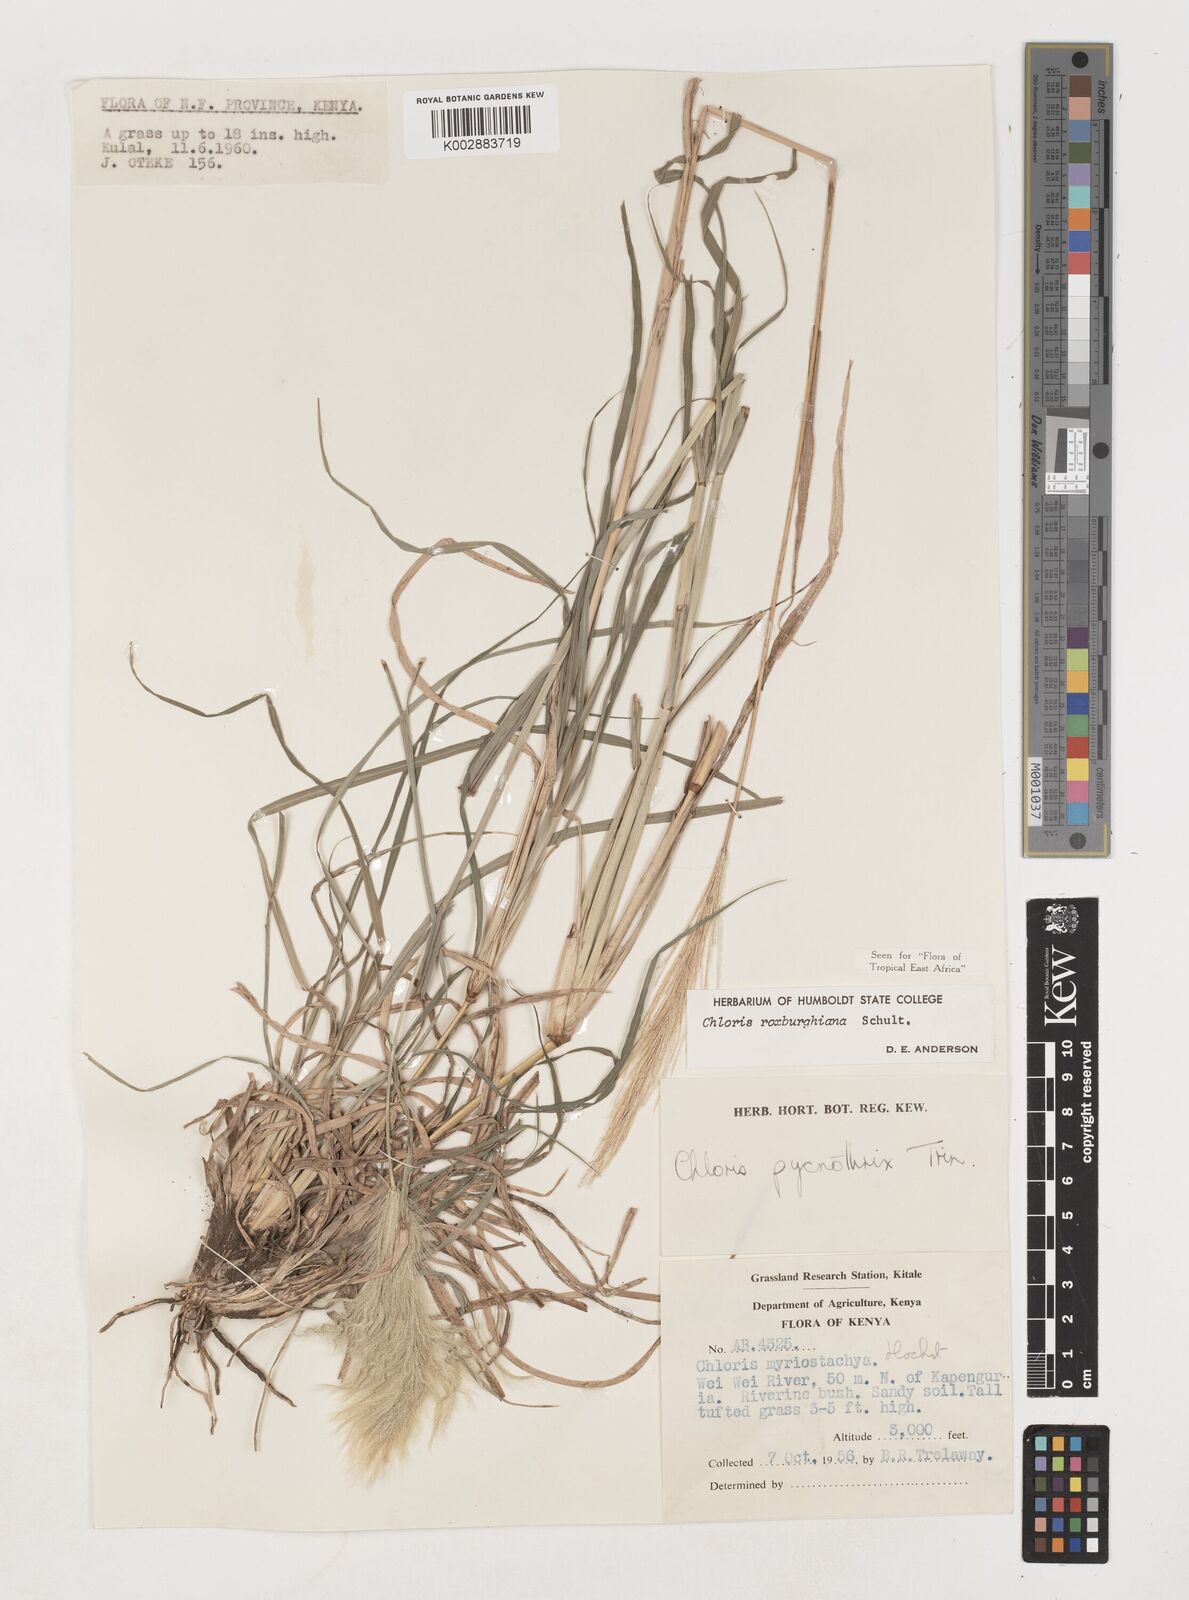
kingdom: Plantae
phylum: Tracheophyta
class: Liliopsida
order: Poales
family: Poaceae
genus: Tetrapogon
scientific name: Tetrapogon roxburghiana
